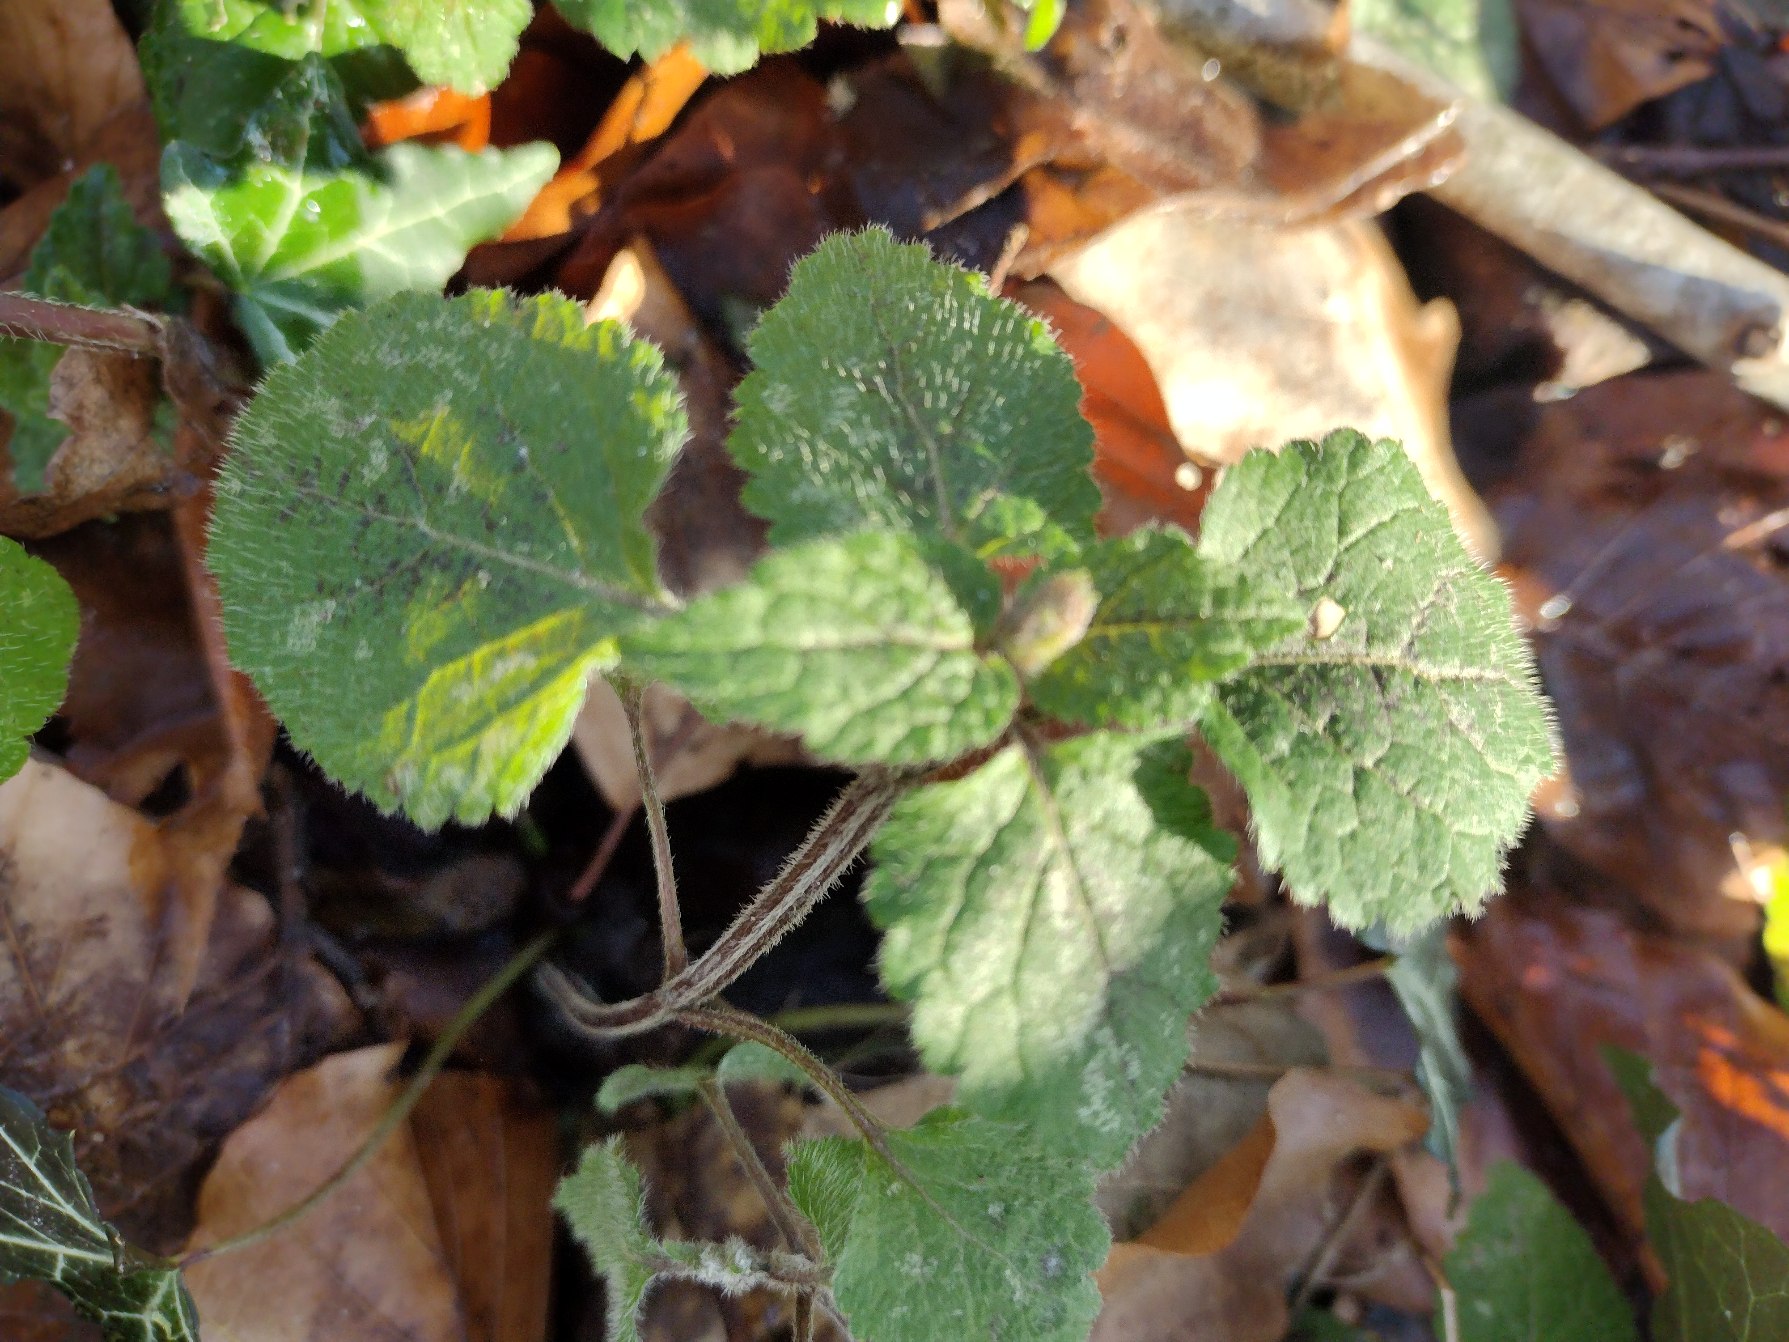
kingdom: Plantae
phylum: Tracheophyta
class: Magnoliopsida
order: Lamiales
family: Lamiaceae
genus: Lamium
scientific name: Lamium galeobdolon
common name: Guldnælde
